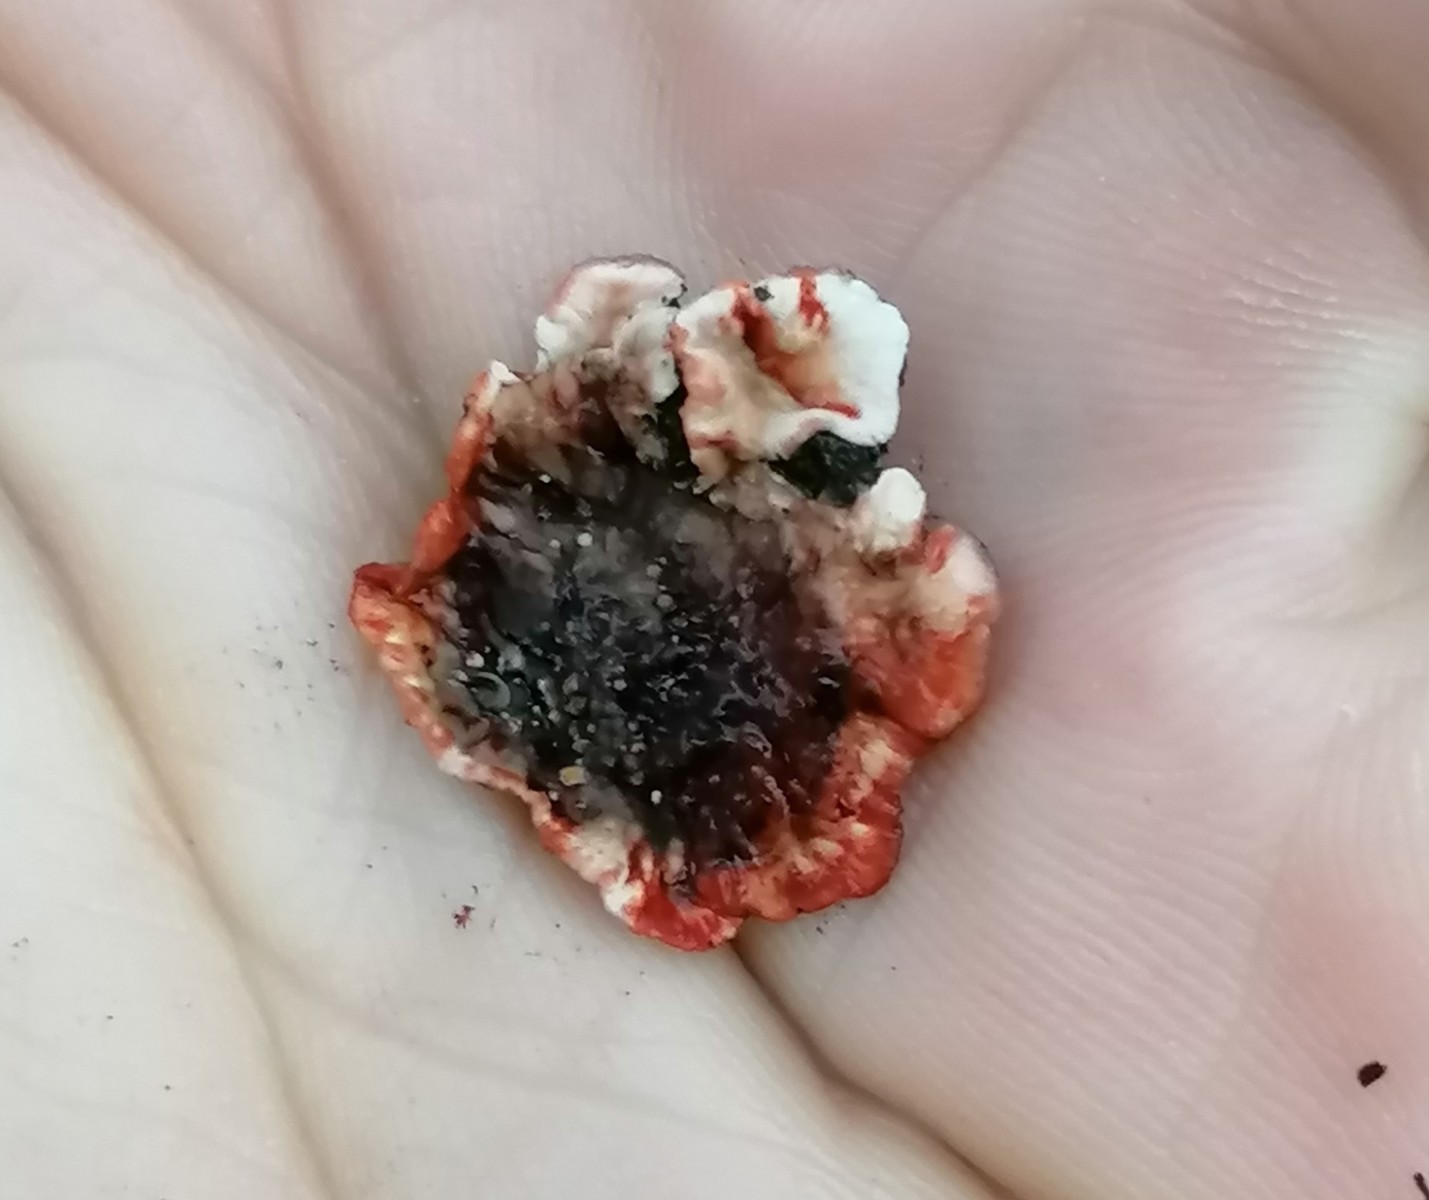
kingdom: Fungi
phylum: Basidiomycota
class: Tremellomycetes
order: Tremellales
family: Tremellaceae
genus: Phaeotremella
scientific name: Phaeotremella foliacea
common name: brun bævresvamp
